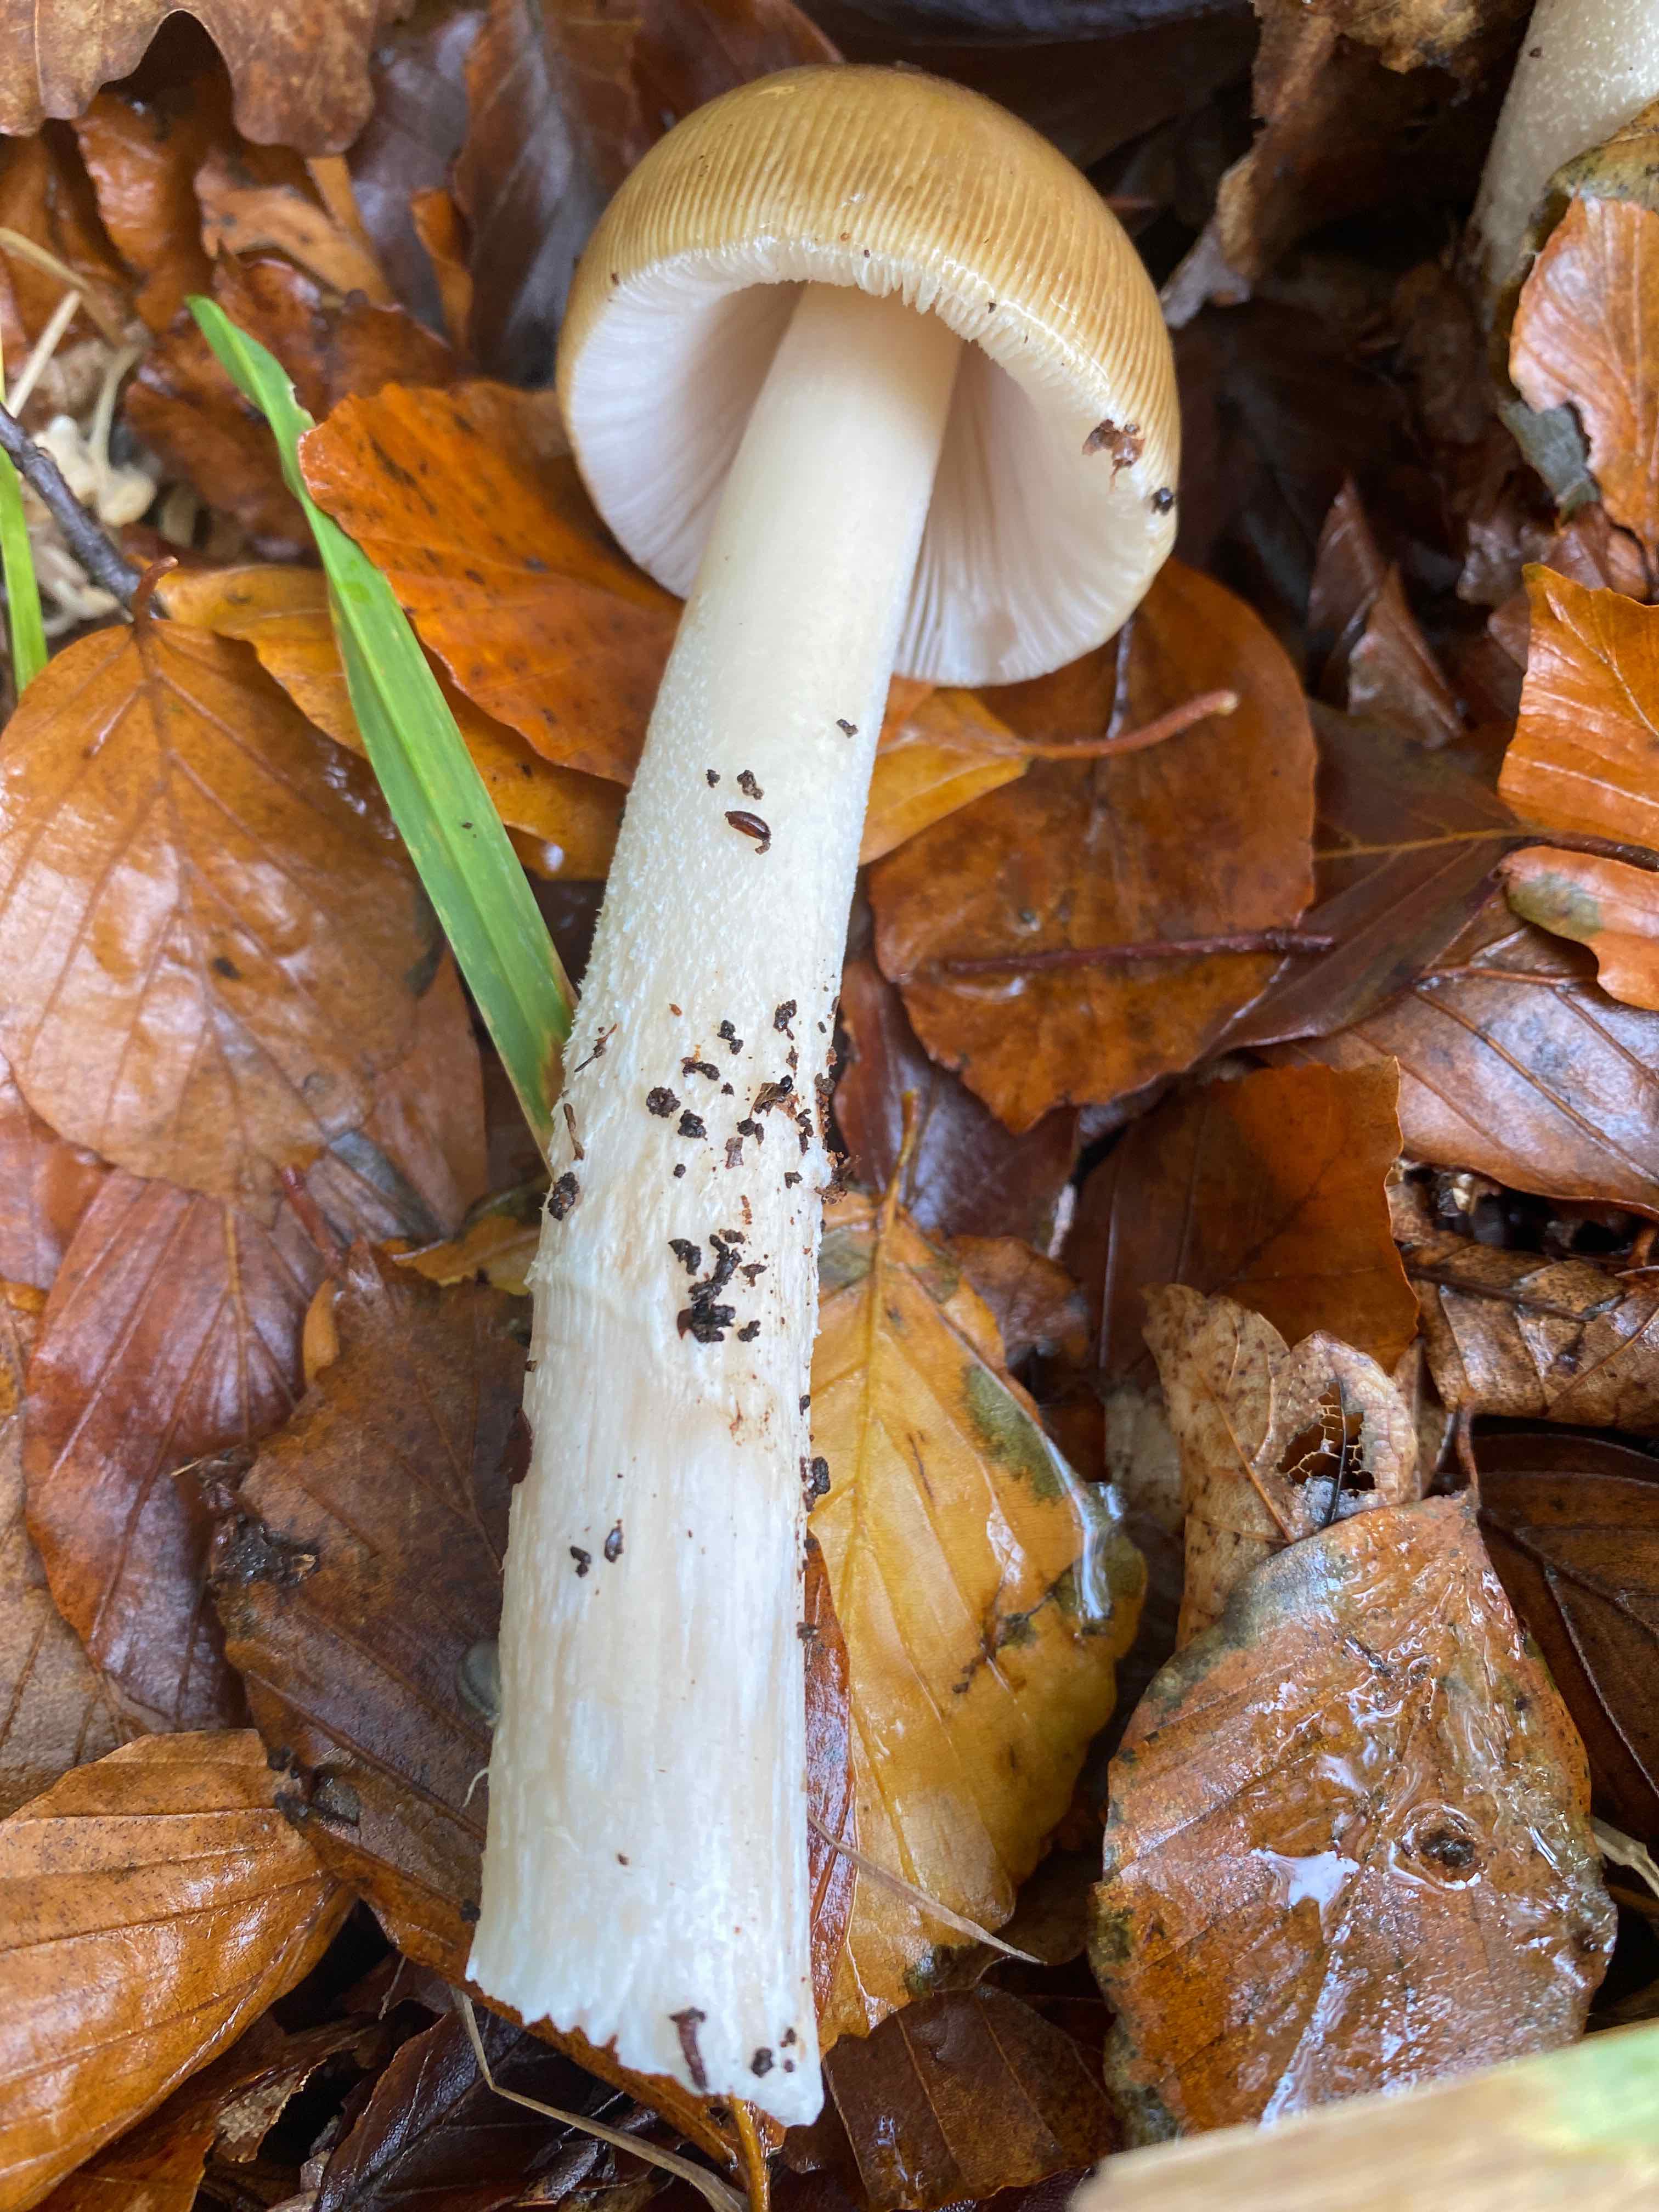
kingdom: Fungi
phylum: Basidiomycota
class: Agaricomycetes
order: Agaricales
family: Amanitaceae
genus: Amanita
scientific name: Amanita fulva
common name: brun kam-fluesvamp
